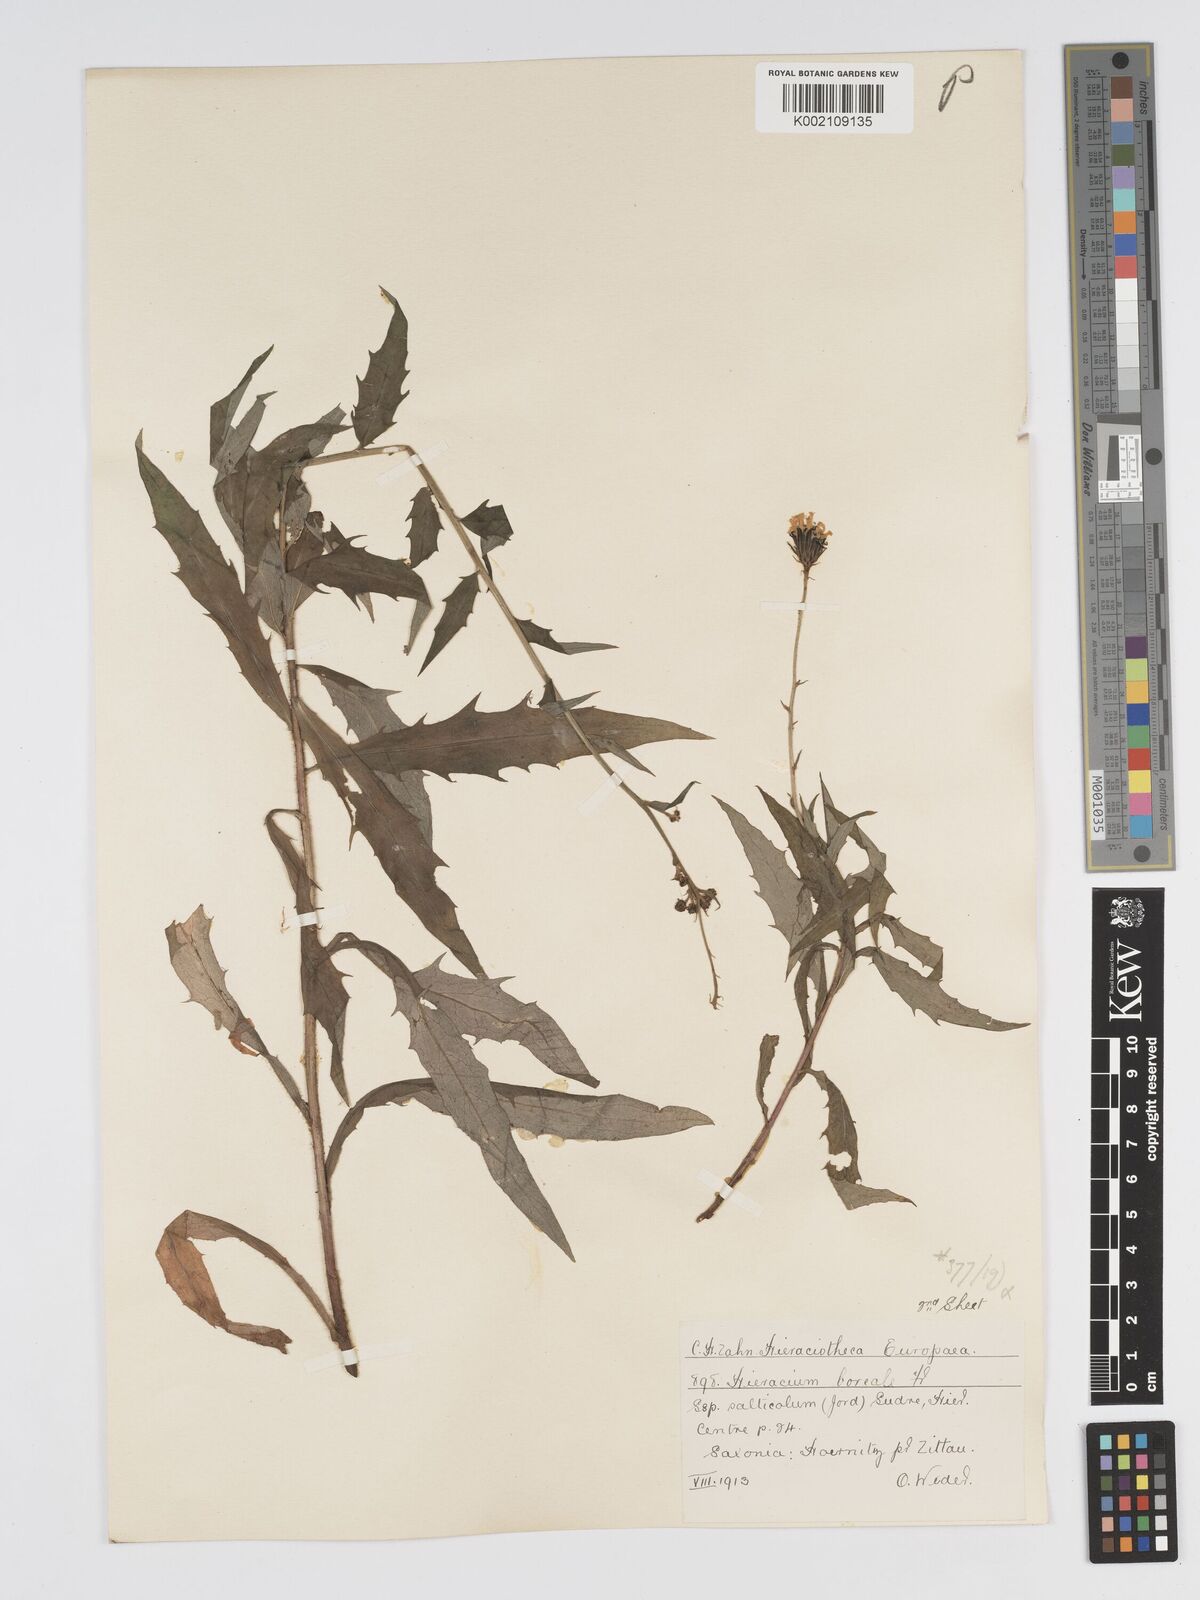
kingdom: Plantae
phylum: Tracheophyta
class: Magnoliopsida
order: Asterales
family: Asteraceae
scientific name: Asteraceae
